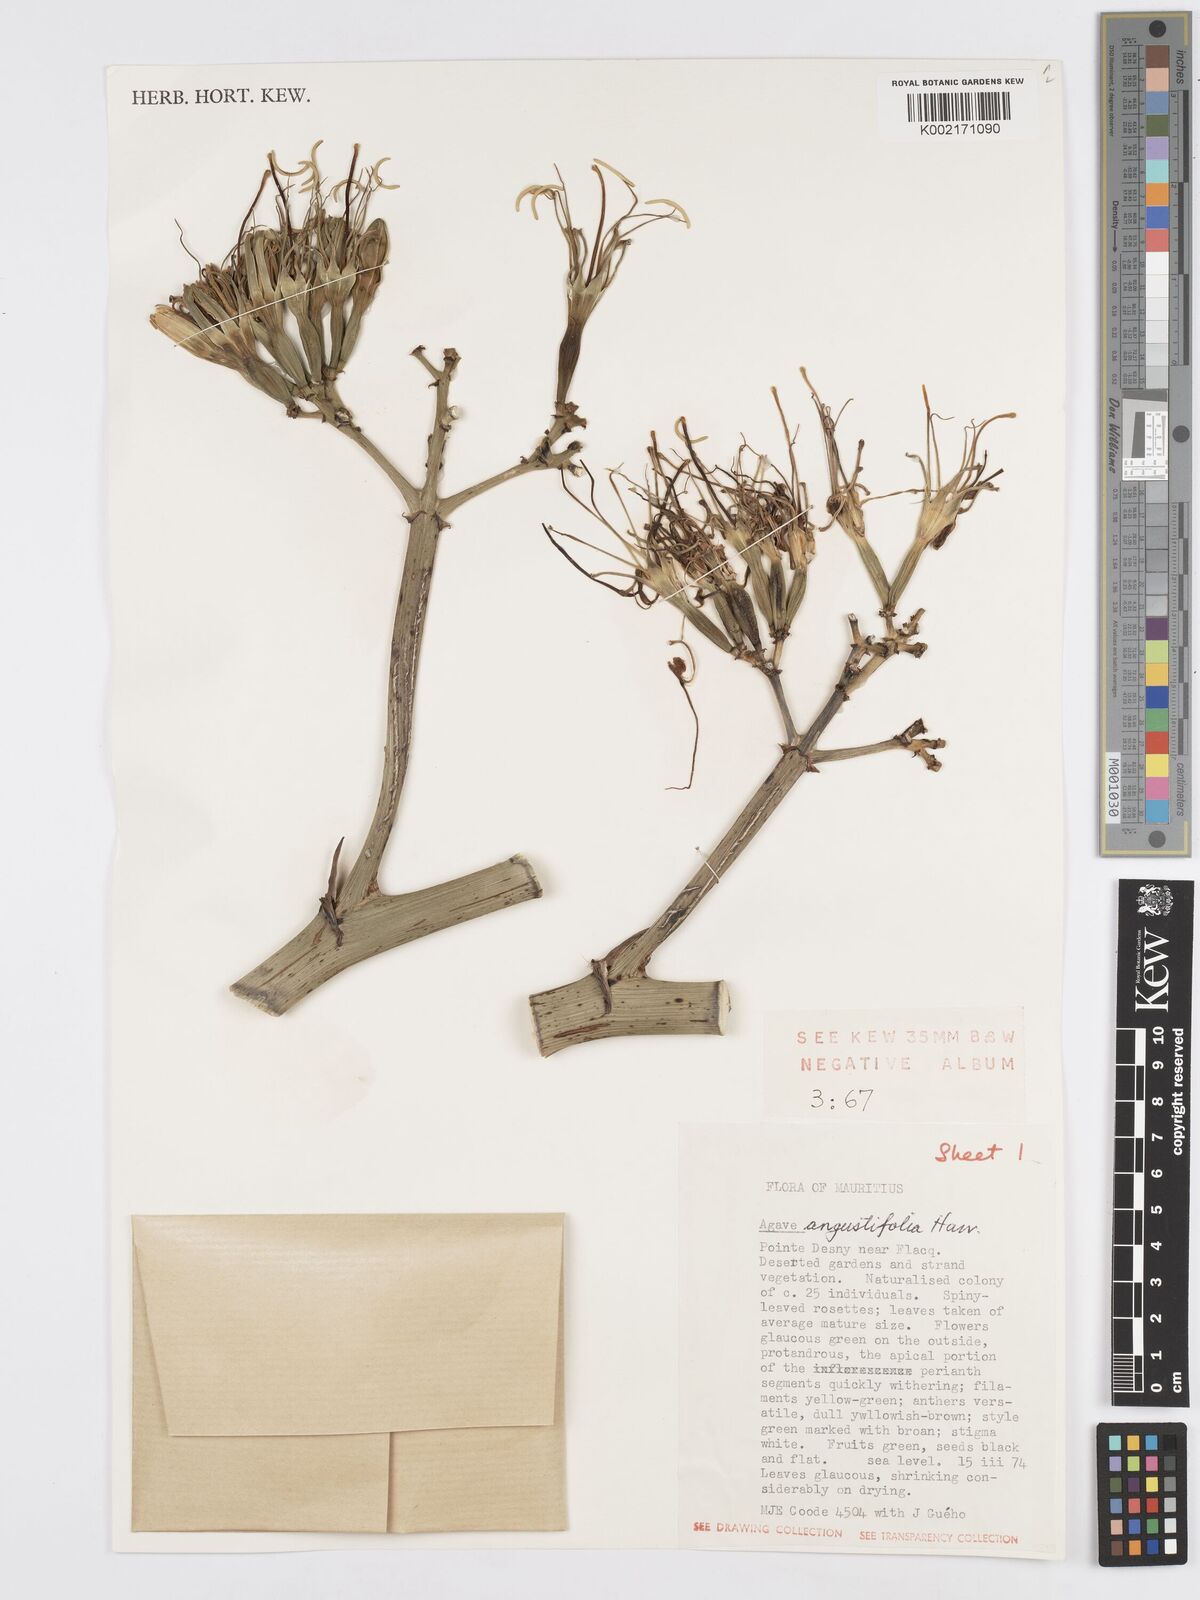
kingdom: Plantae
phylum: Tracheophyta
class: Liliopsida
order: Asparagales
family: Asparagaceae
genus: Agave
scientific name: Agave angustifolia
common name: Mescal agave
